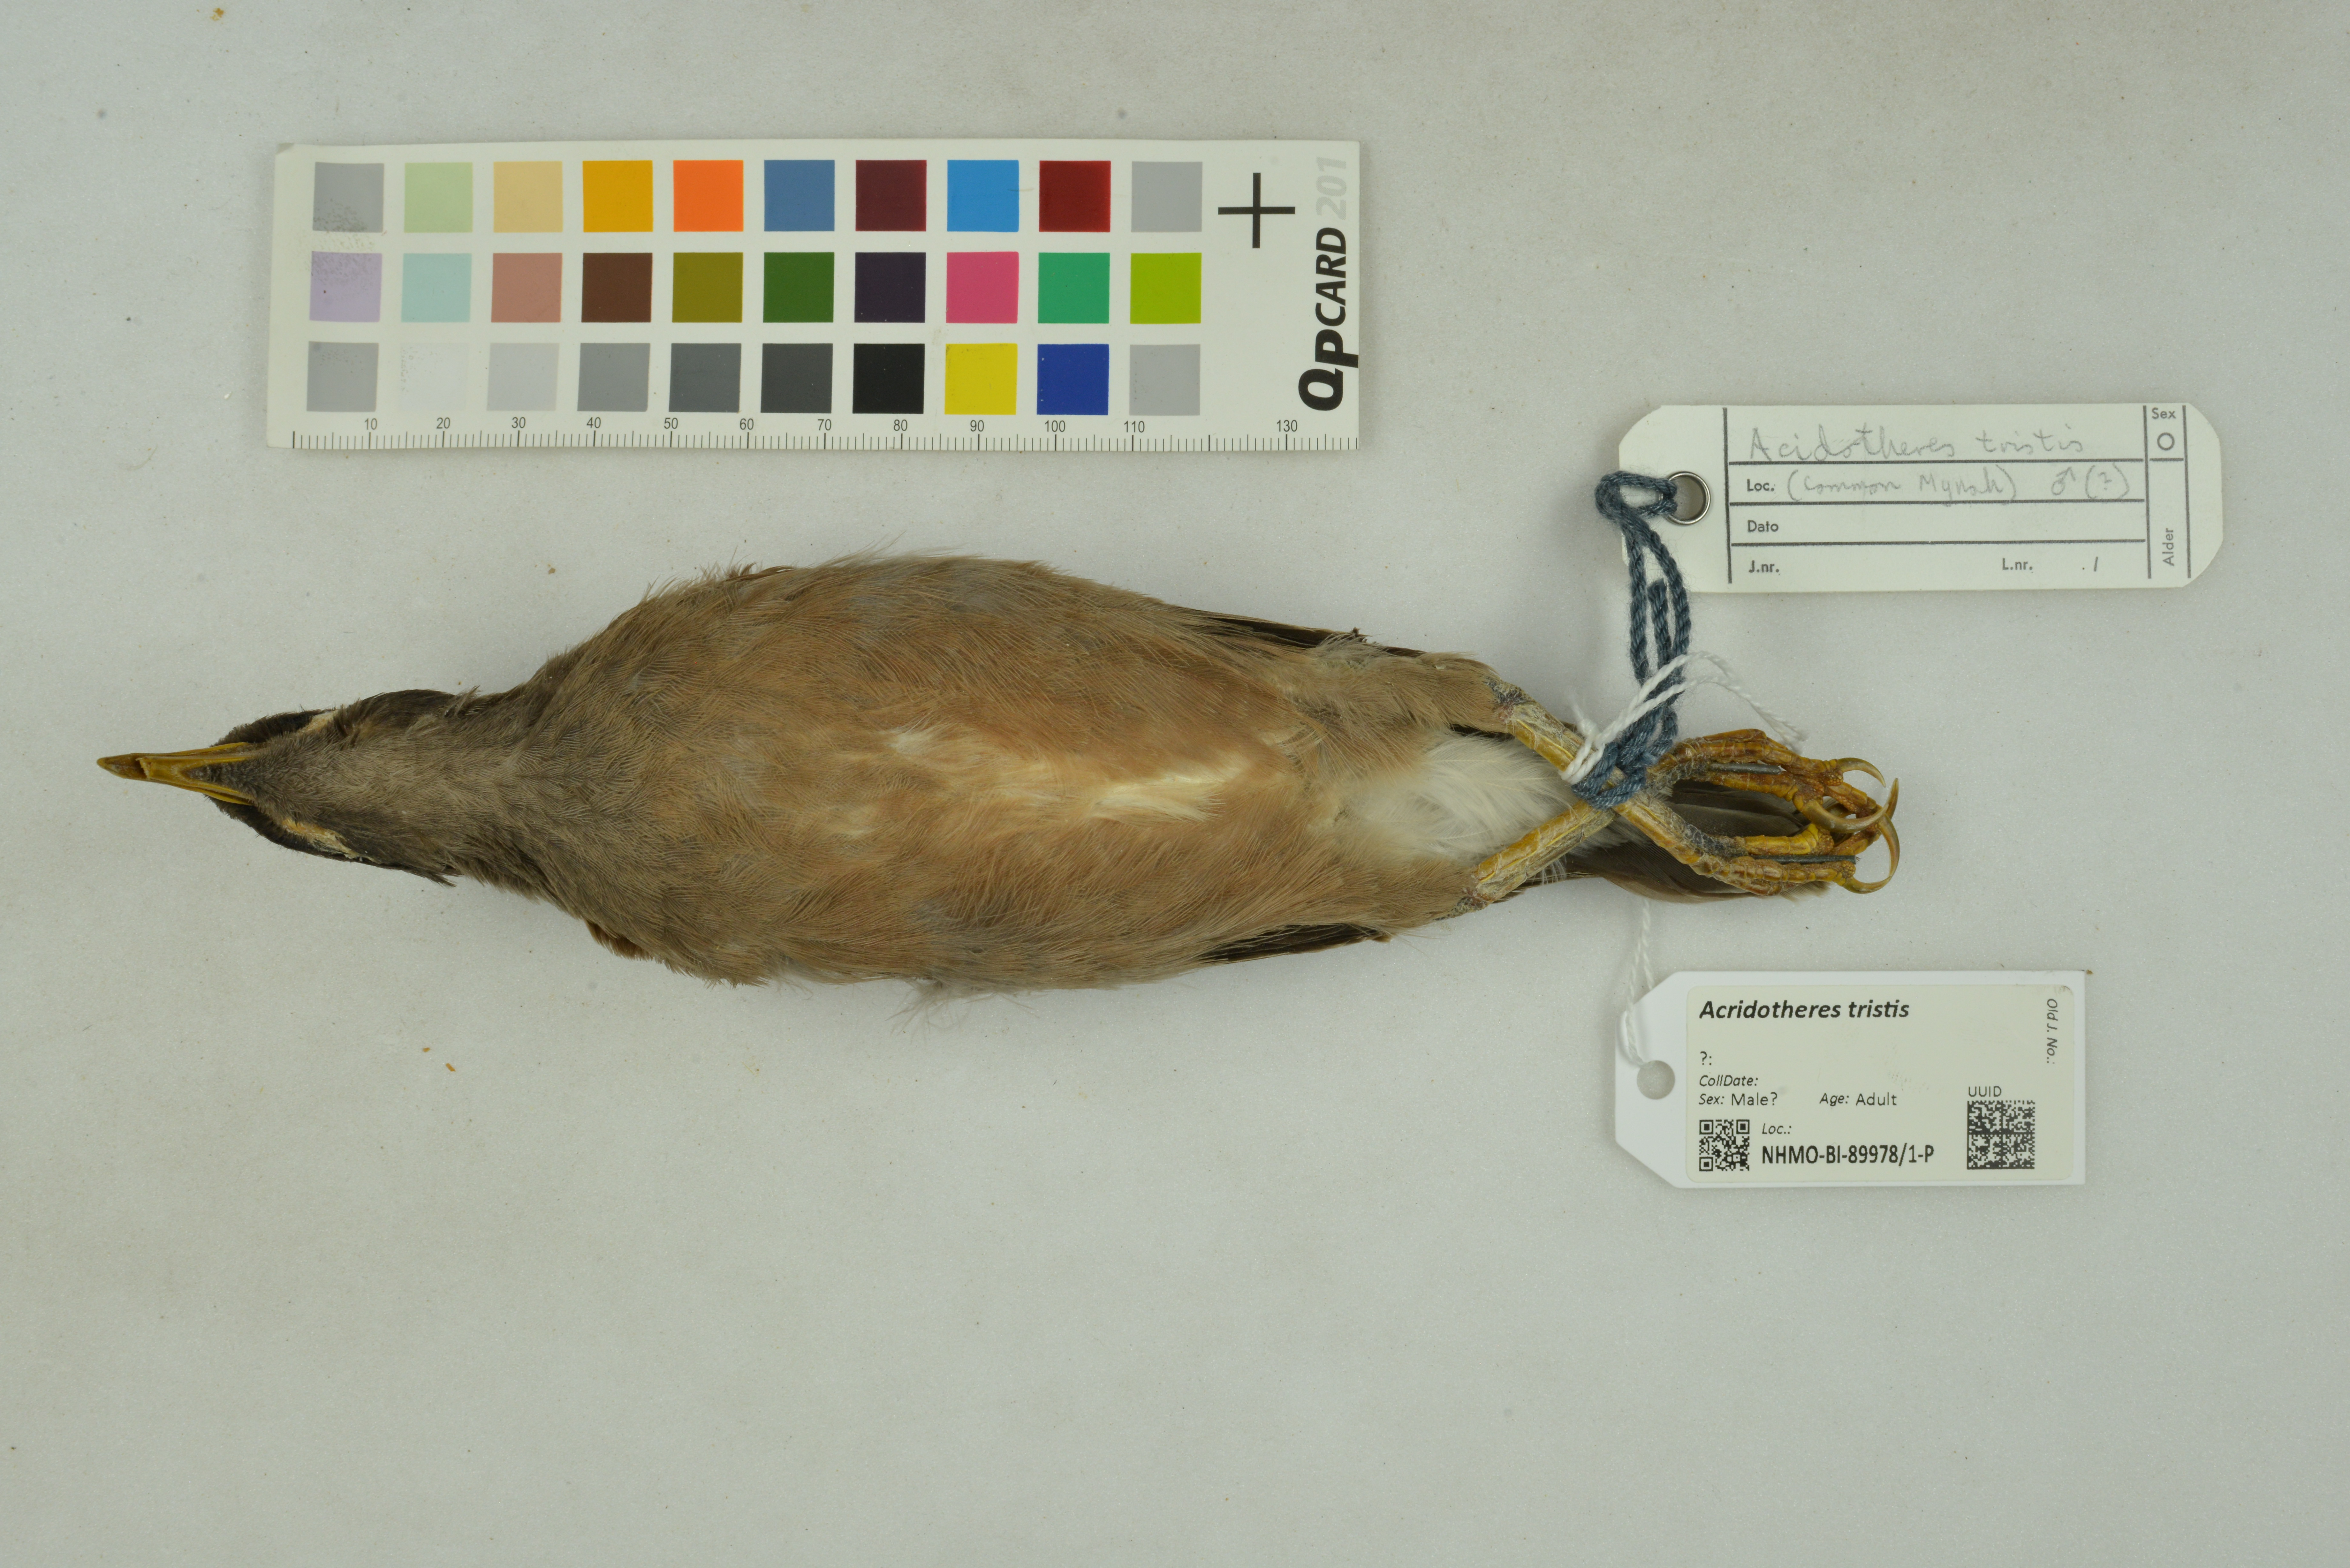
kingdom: Animalia
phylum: Chordata
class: Aves
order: Passeriformes
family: Sturnidae
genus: Acridotheres
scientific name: Acridotheres tristis
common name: Common myna
